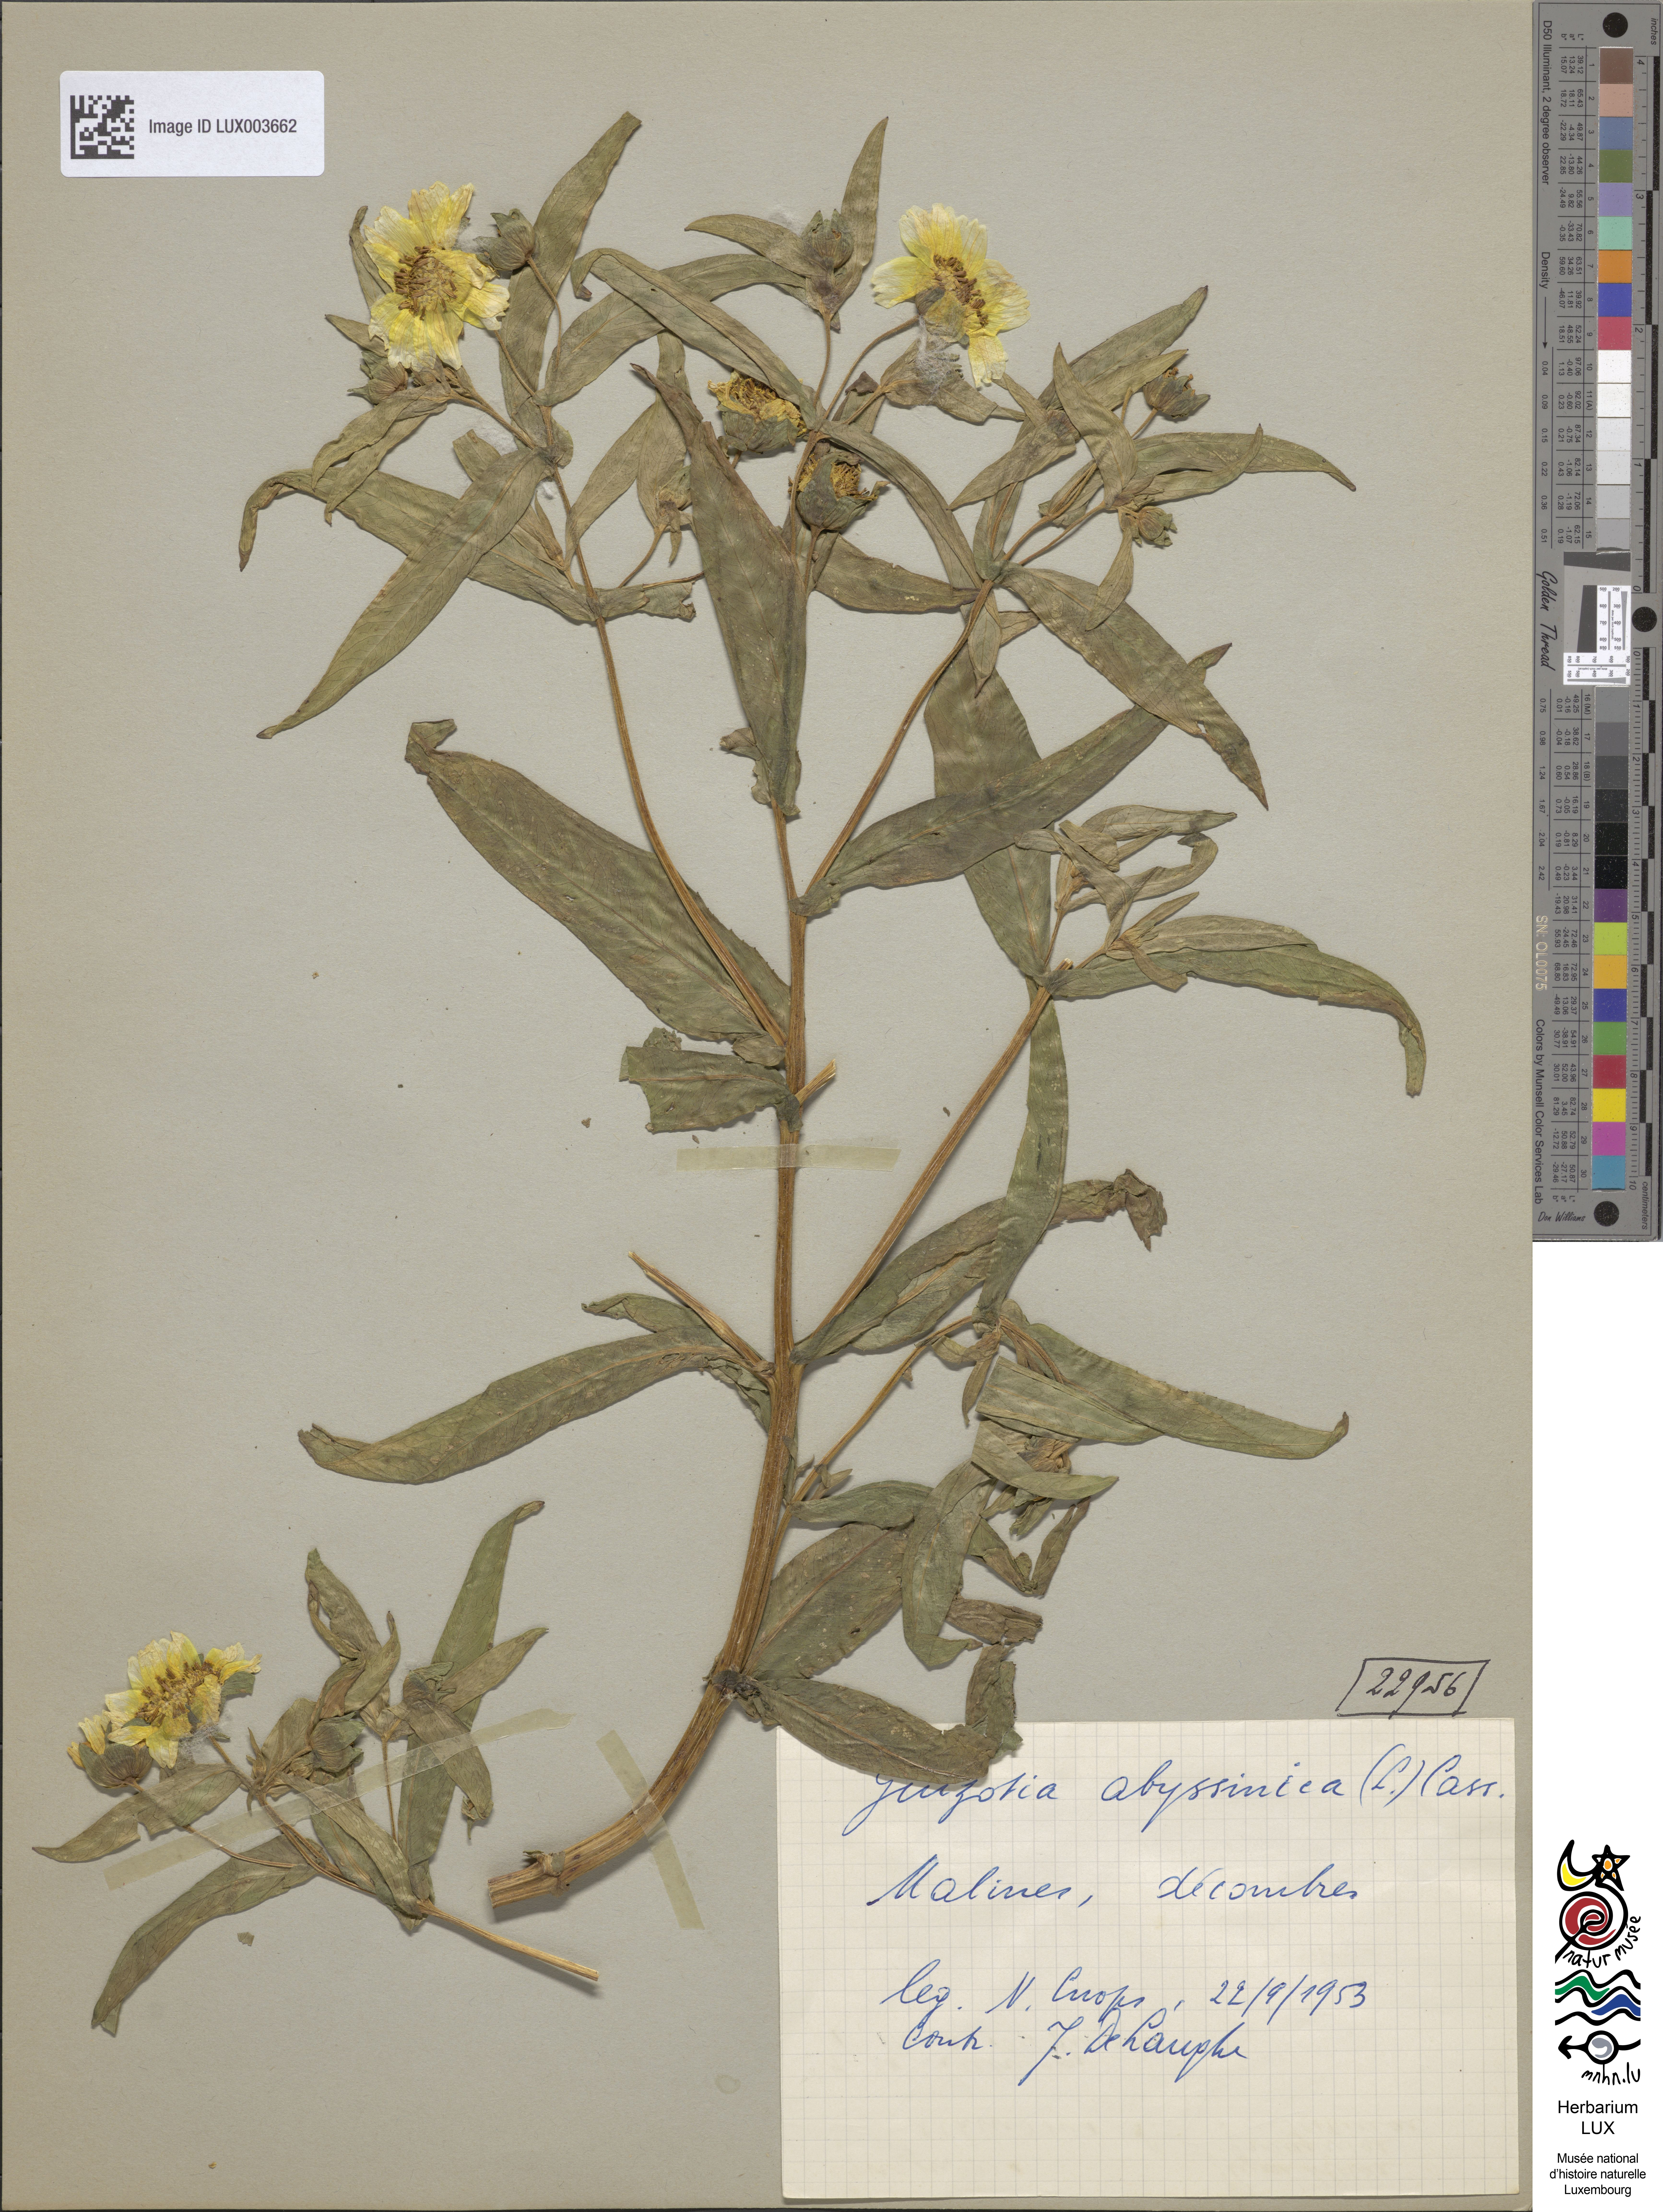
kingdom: Plantae
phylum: Tracheophyta
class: Magnoliopsida
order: Asterales
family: Asteraceae
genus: Guizotia
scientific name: Guizotia abyssinica
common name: Niger
